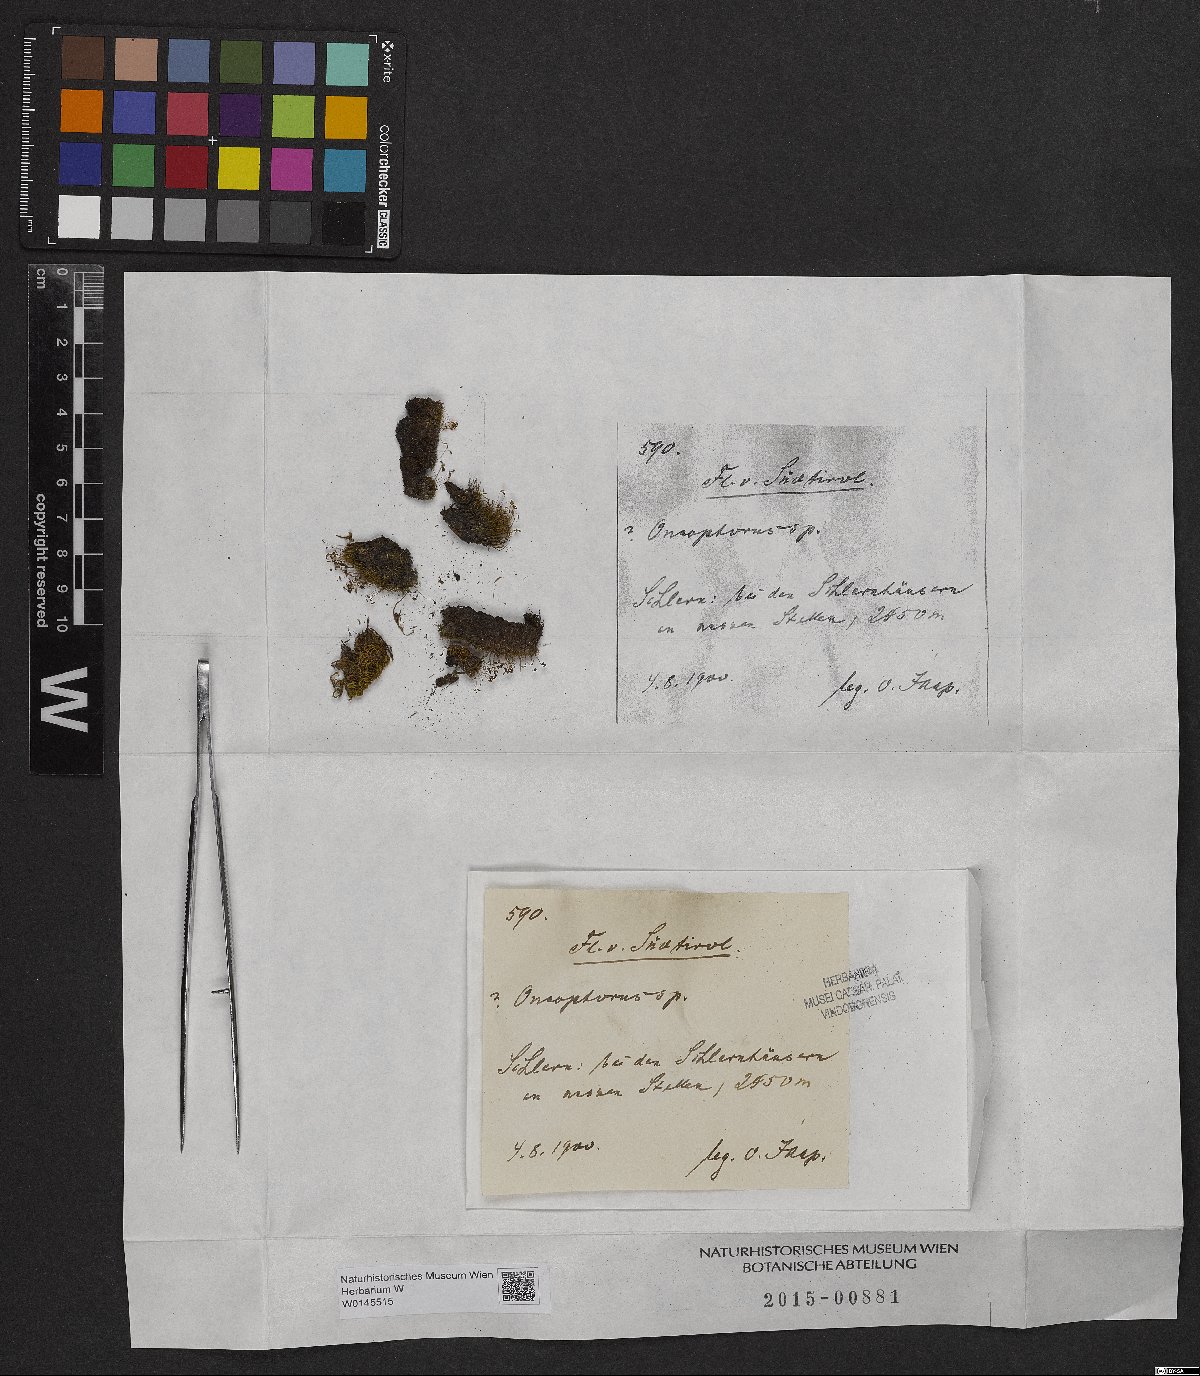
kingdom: Plantae
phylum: Bryophyta
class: Bryopsida
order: Dicranales
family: Rhabdoweisiaceae
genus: Oncophorus
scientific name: Oncophorus
